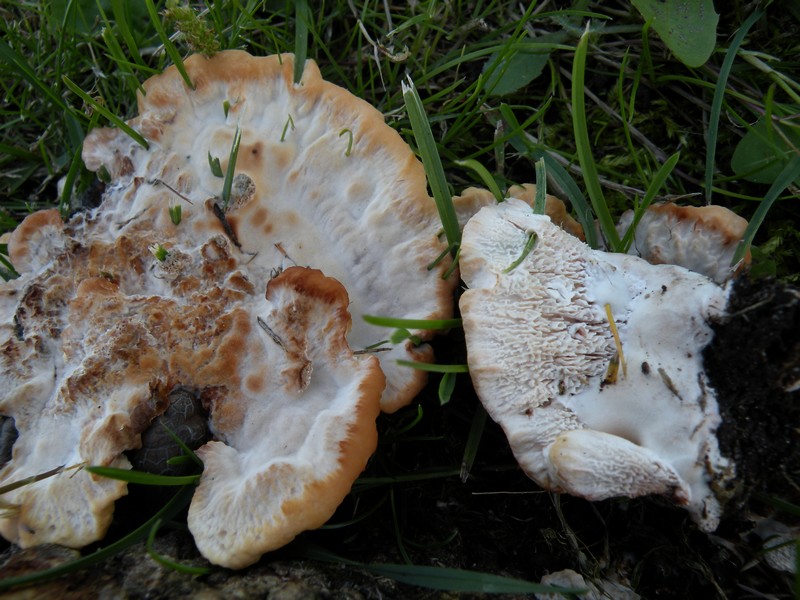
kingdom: Fungi
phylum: Basidiomycota
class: Agaricomycetes
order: Polyporales
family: Podoscyphaceae
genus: Abortiporus
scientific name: Abortiporus biennis
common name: rødmende pjalteporesvamp
